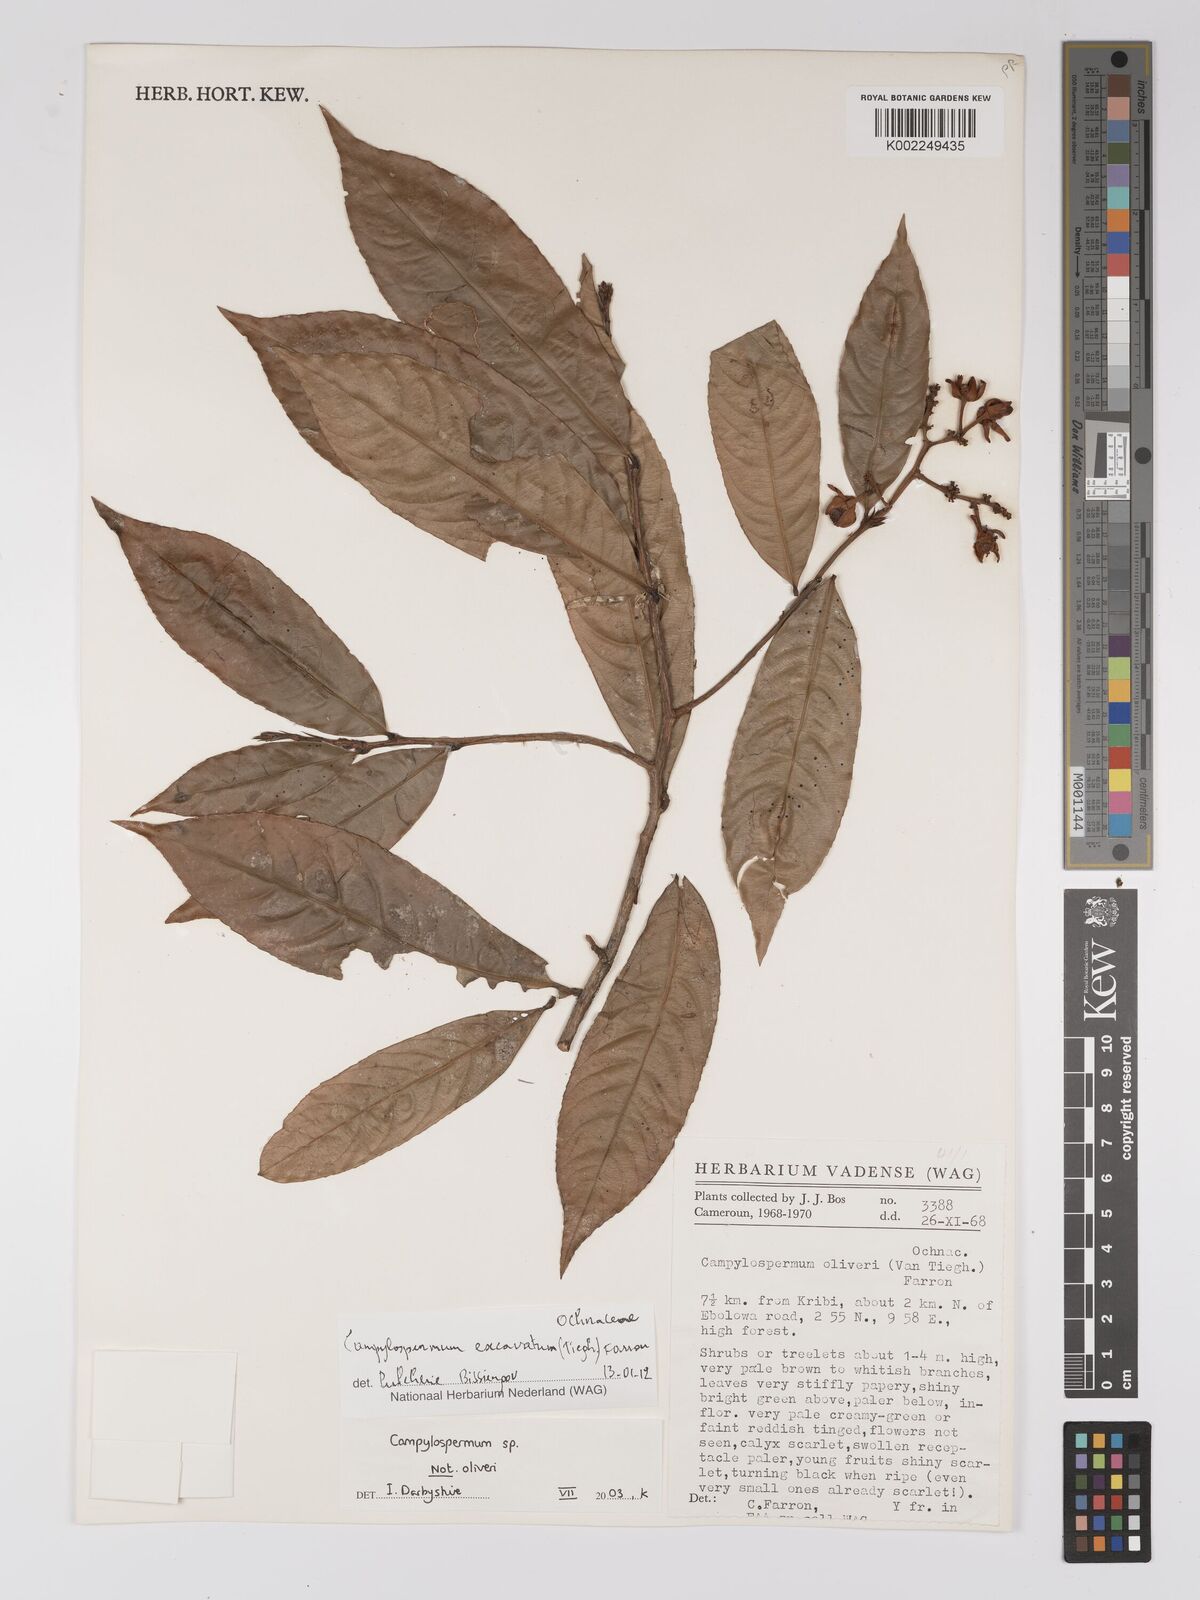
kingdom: Plantae
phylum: Tracheophyta
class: Magnoliopsida
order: Malpighiales
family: Ochnaceae
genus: Campylospermum
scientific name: Campylospermum excavatum
